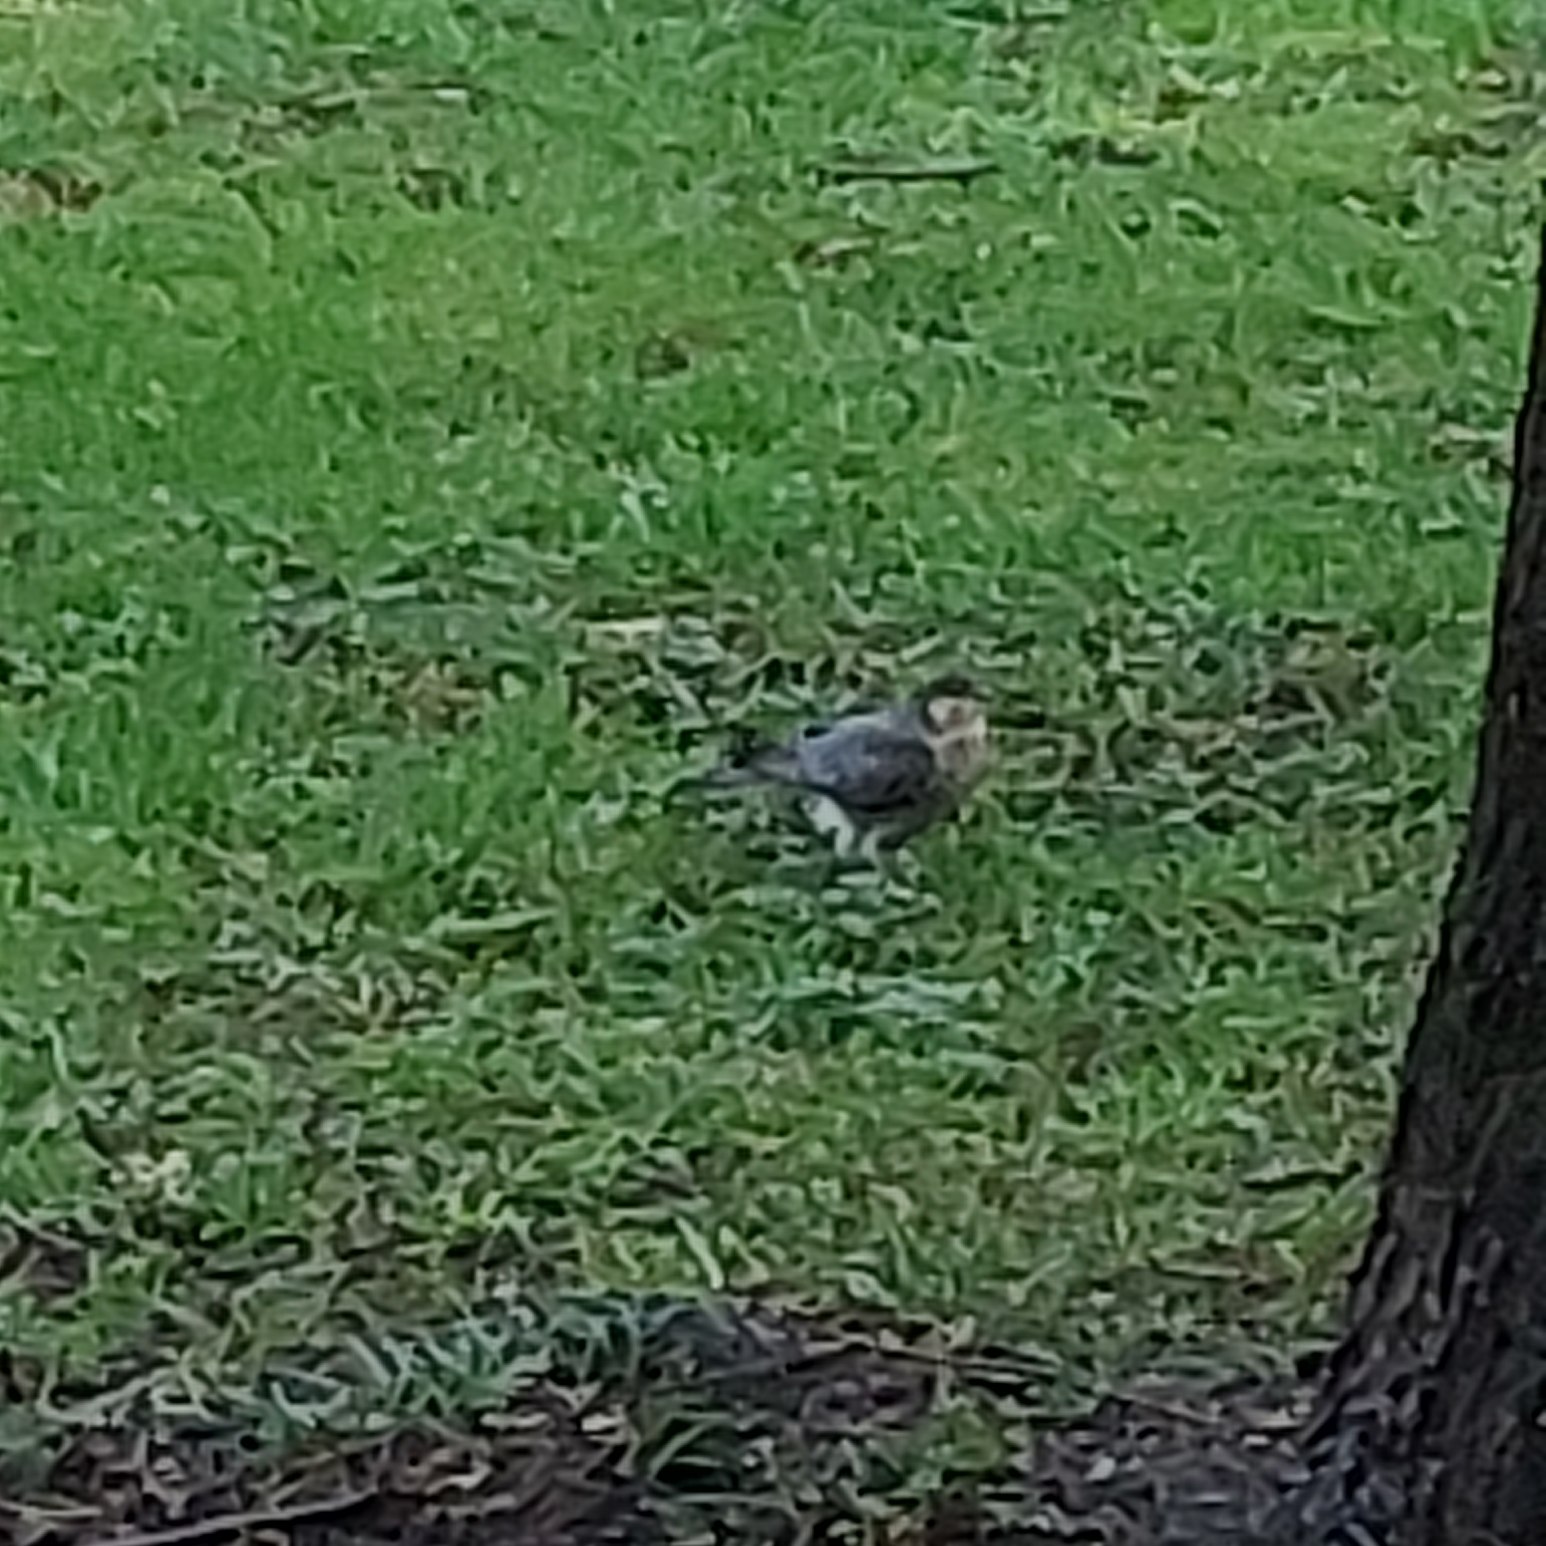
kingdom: Animalia
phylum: Chordata
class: Aves
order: Accipitriformes
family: Accipitridae
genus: Accipiter
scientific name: Accipiter nisus
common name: Spurvehøg
